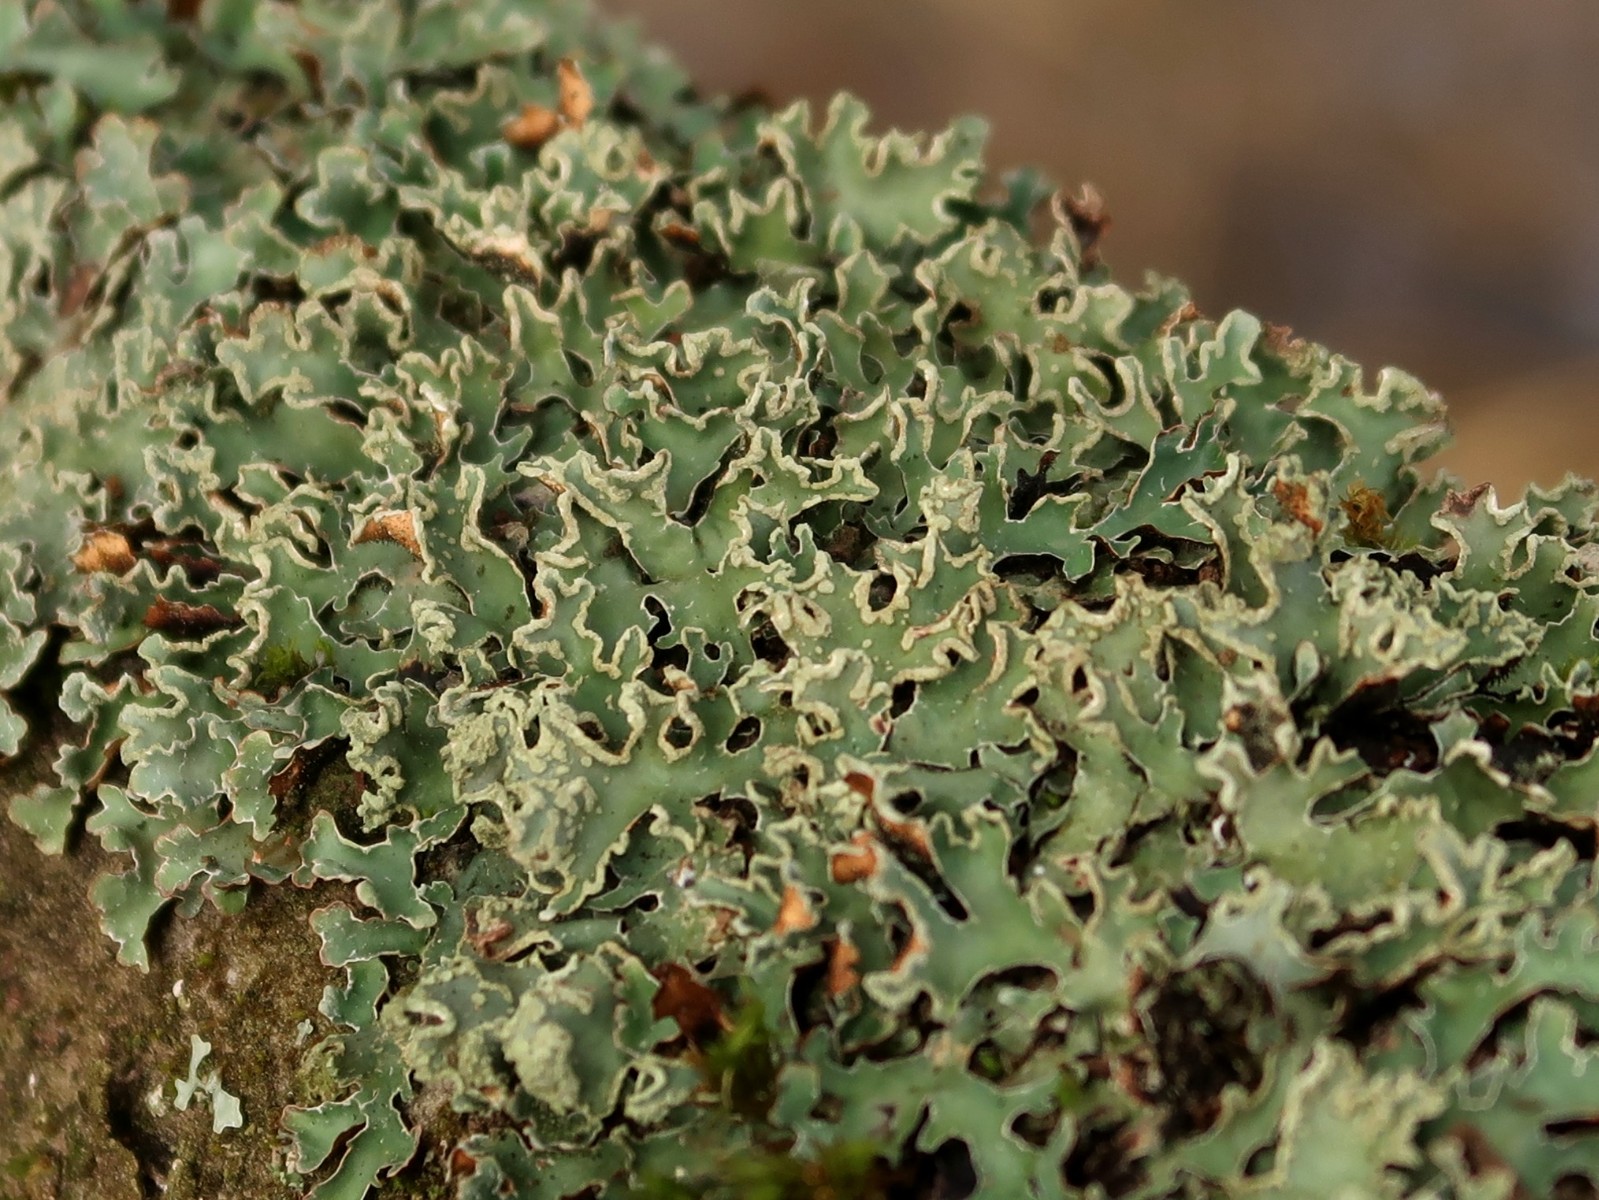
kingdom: Fungi
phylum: Ascomycota
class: Lecanoromycetes
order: Lecanorales
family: Parmeliaceae
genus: Punctelia
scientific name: Punctelia jeckeri
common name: randstøvet skållav
